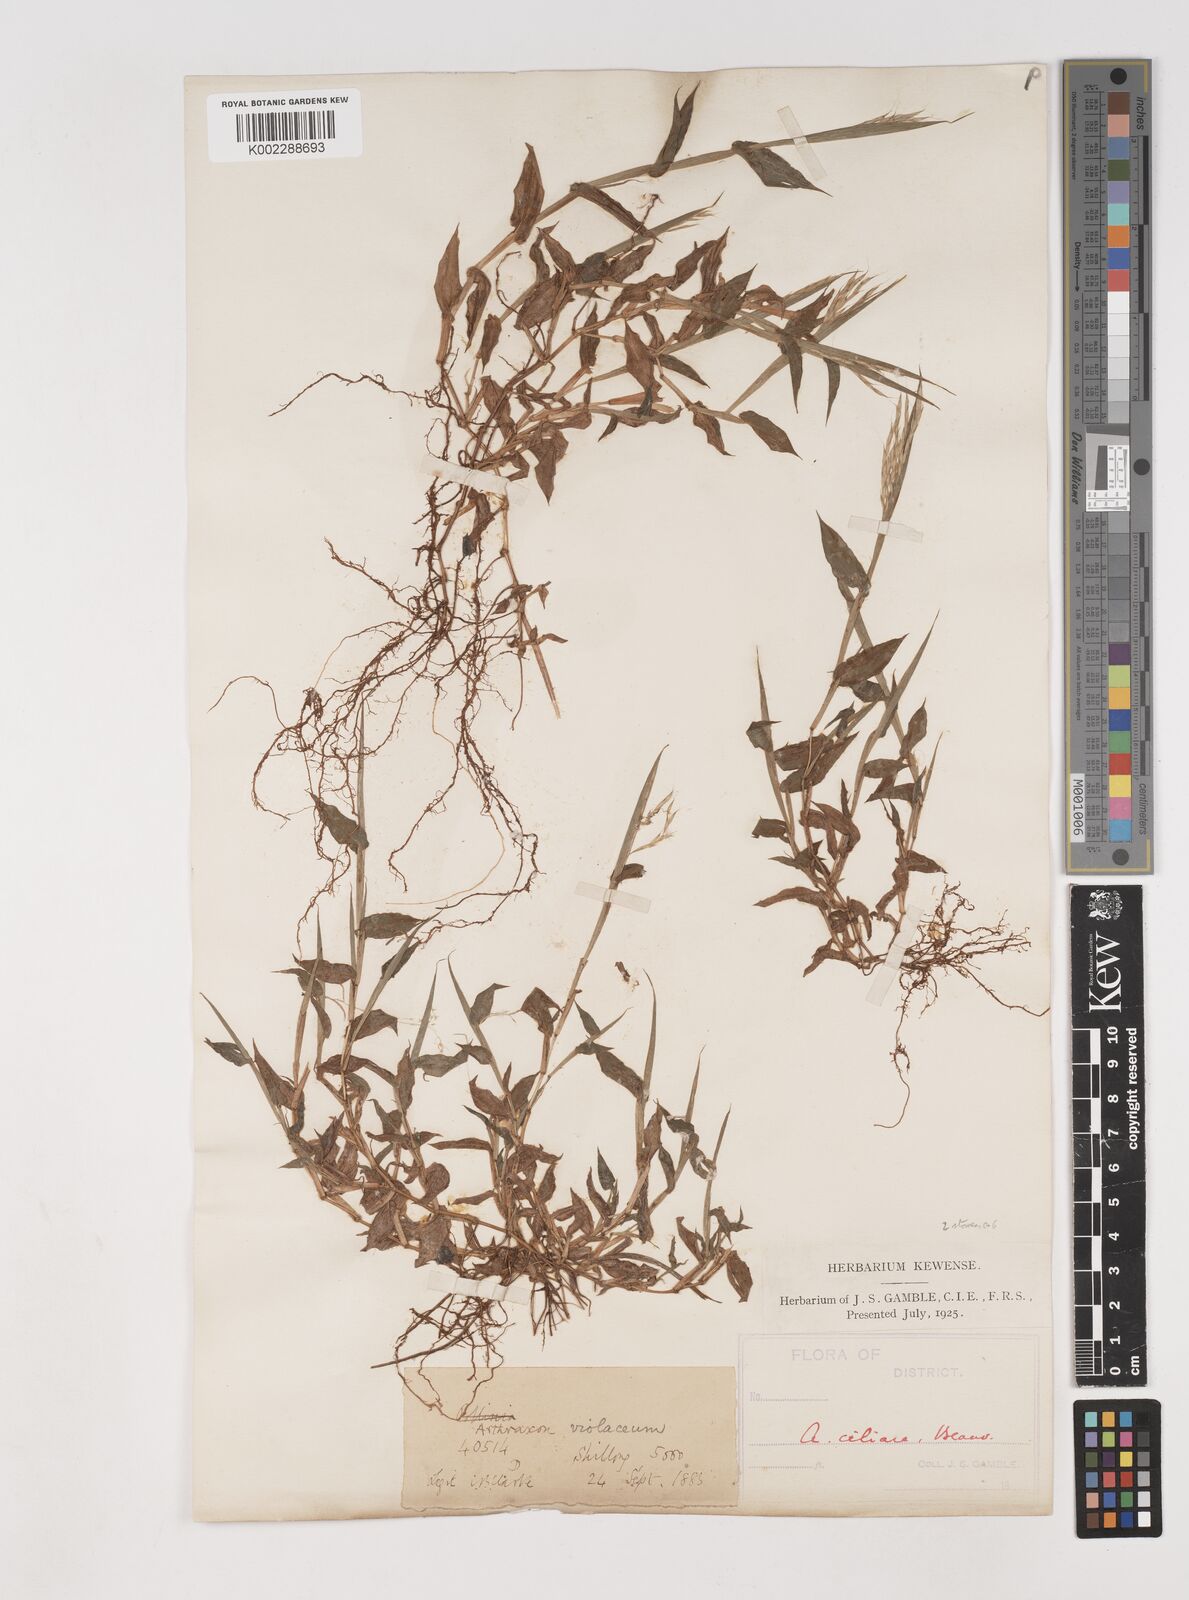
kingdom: Plantae
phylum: Tracheophyta
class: Liliopsida
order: Poales
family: Poaceae
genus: Arthraxon
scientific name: Arthraxon hispidus
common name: Small carpgrass
